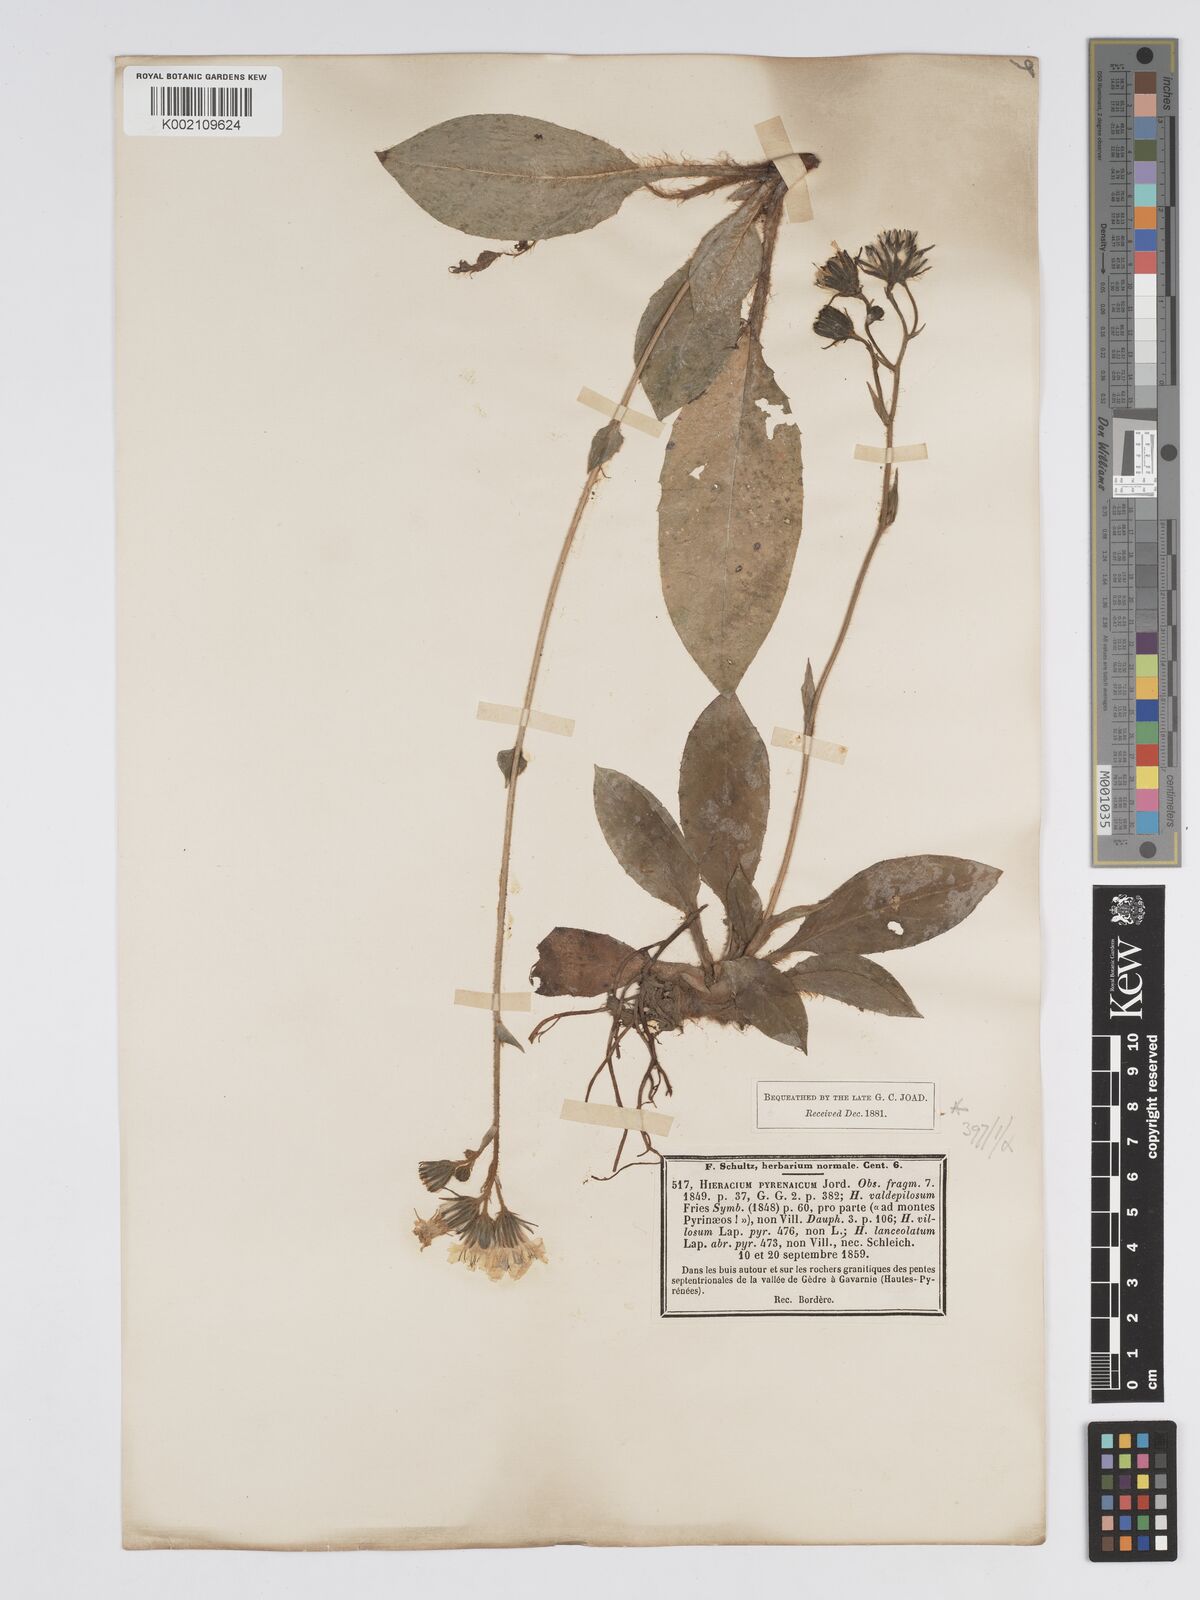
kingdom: Plantae
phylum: Tracheophyta
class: Magnoliopsida
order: Asterales
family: Asteraceae
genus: Hieracium
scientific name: Hieracium nobile
